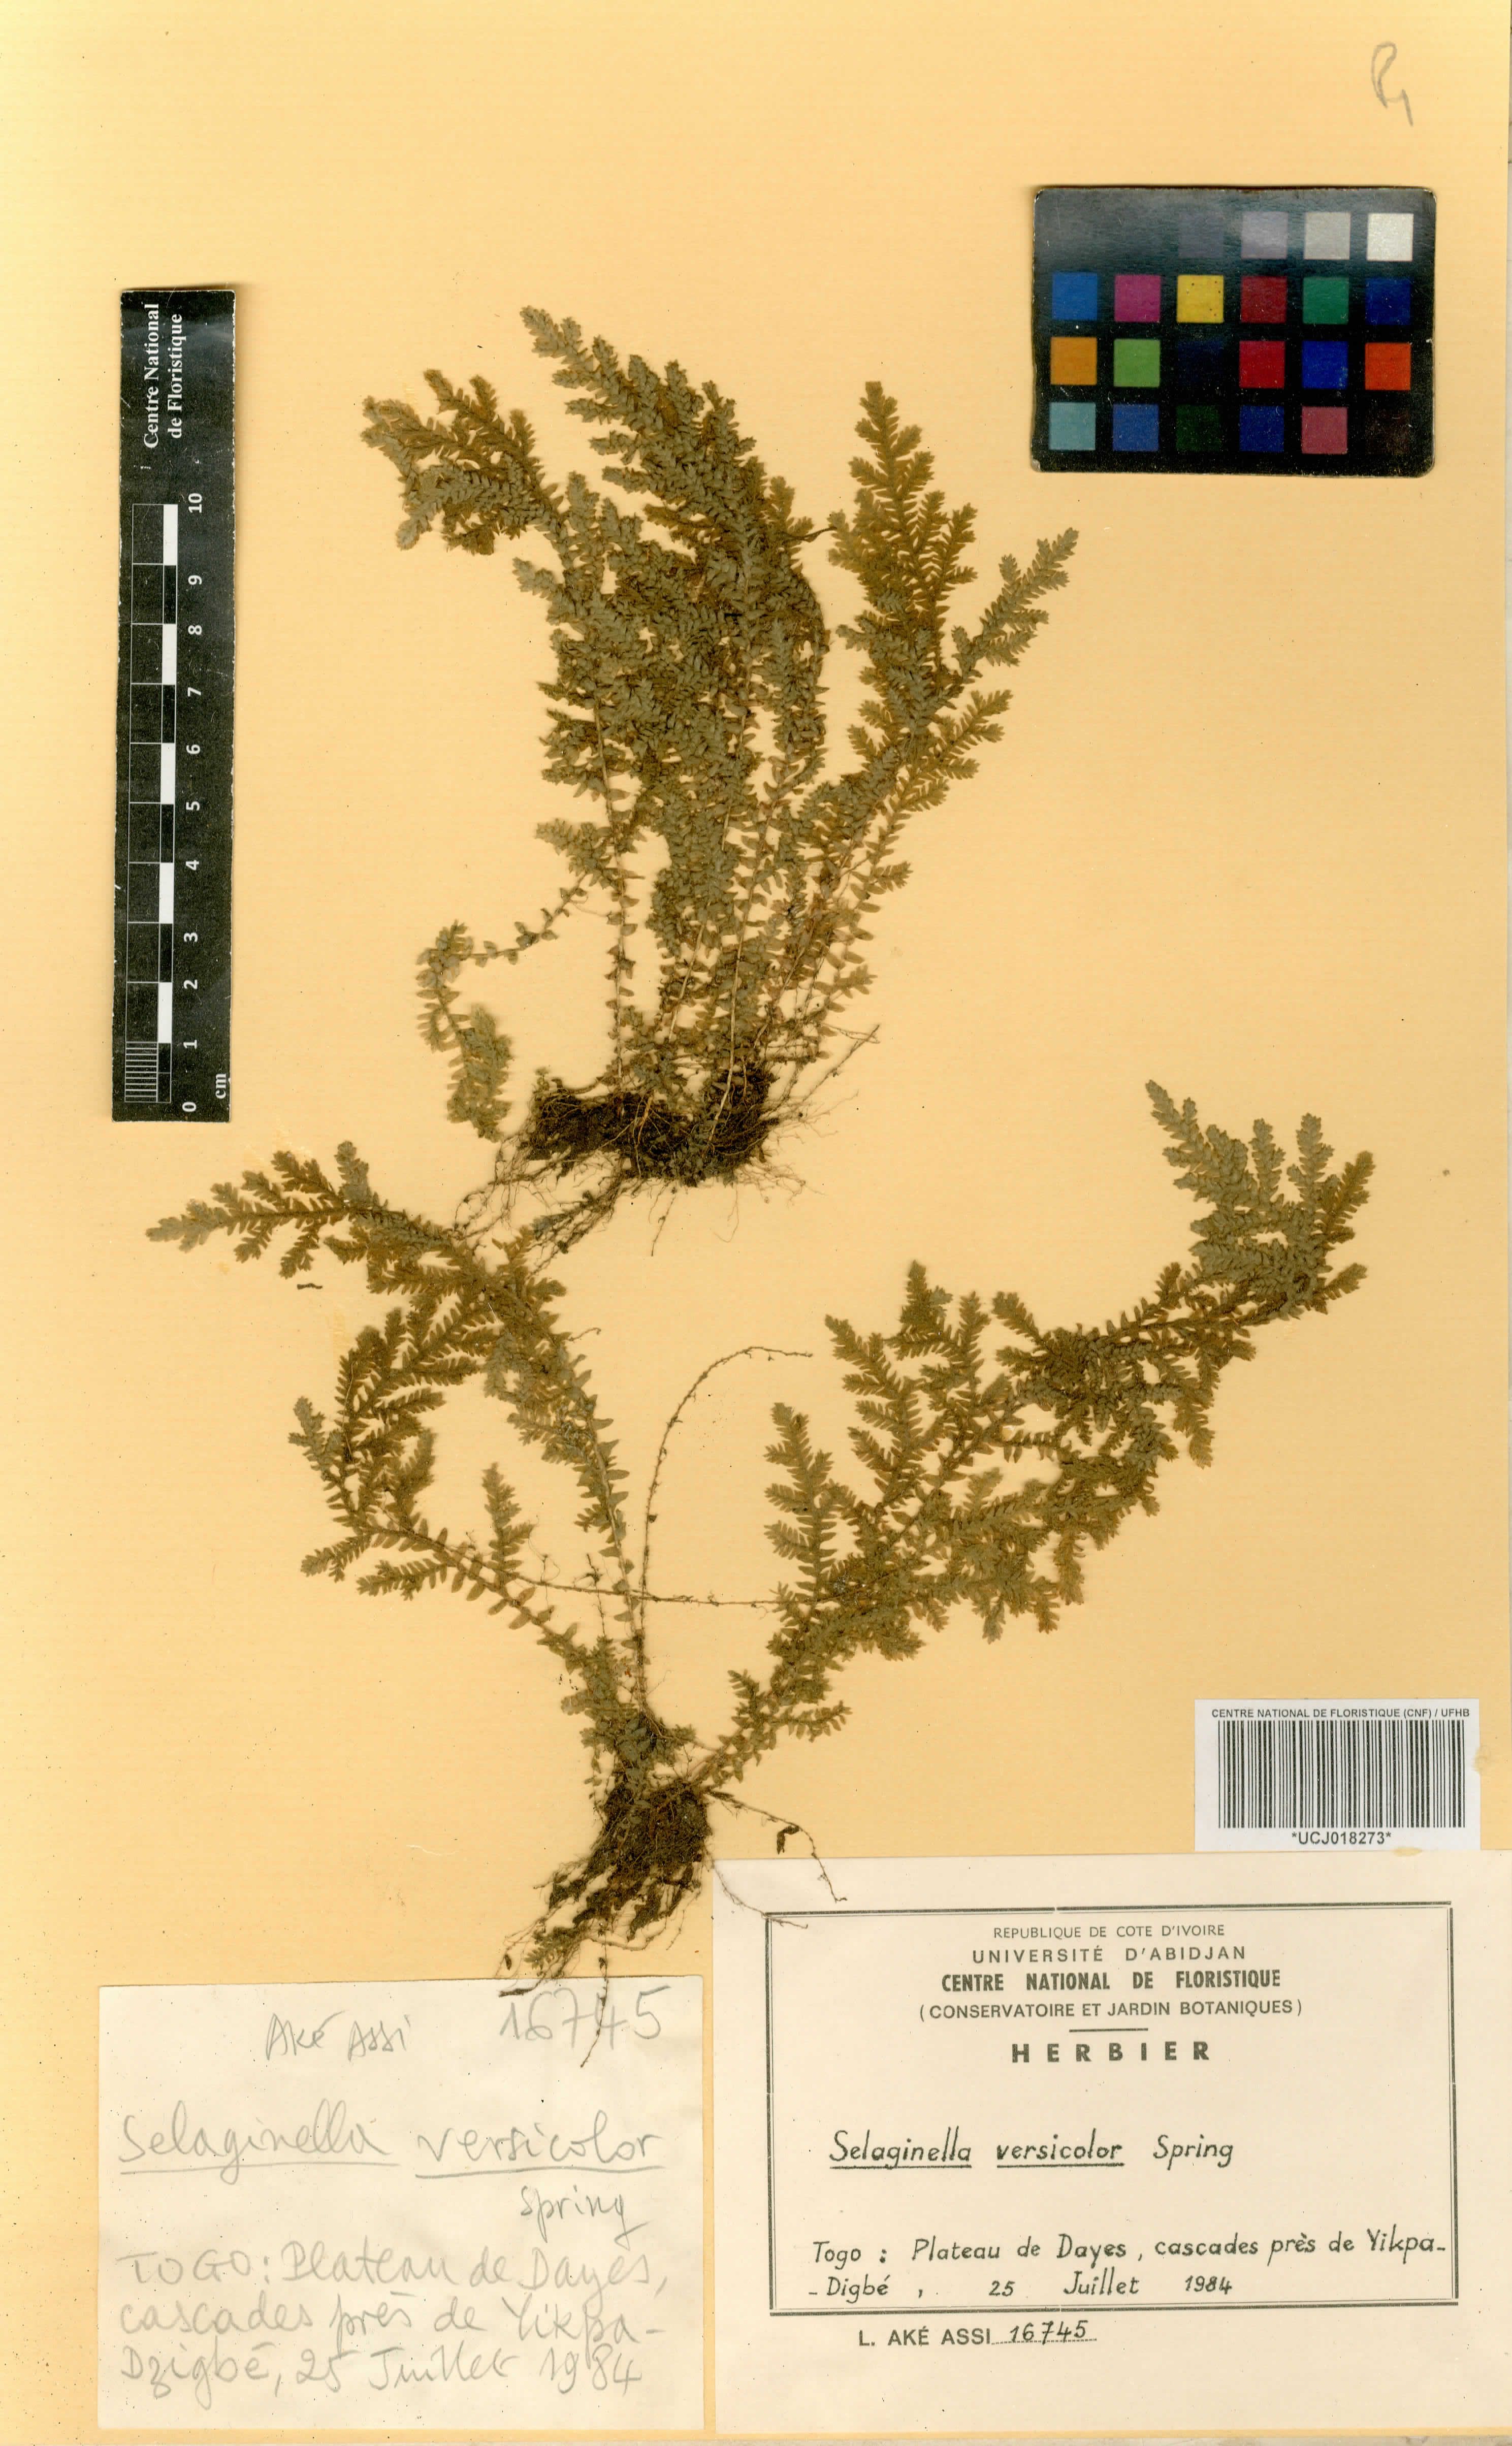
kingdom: Plantae
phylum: Tracheophyta
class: Lycopodiopsida
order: Selaginellales
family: Selaginellaceae
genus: Selaginella
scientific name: Selaginella versicolor
